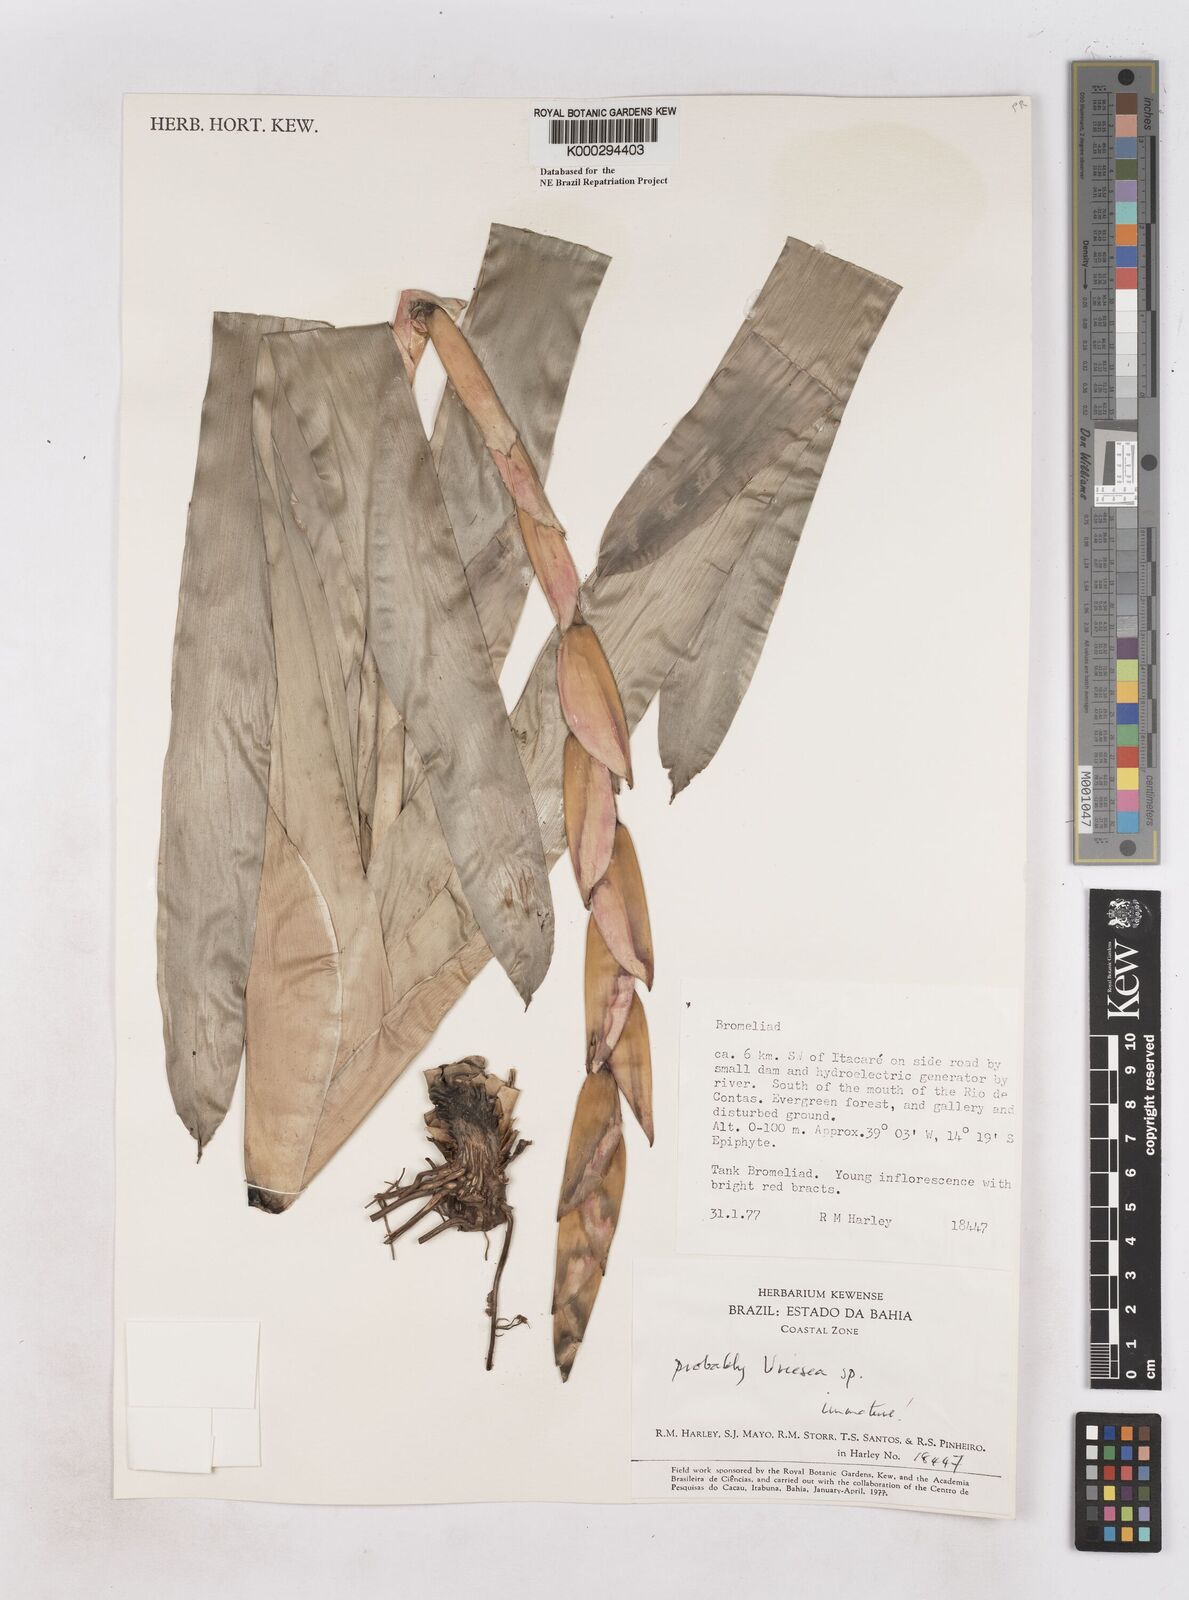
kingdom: Plantae
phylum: Tracheophyta
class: Liliopsida
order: Poales
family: Bromeliaceae
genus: Vriesea
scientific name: Vriesea
